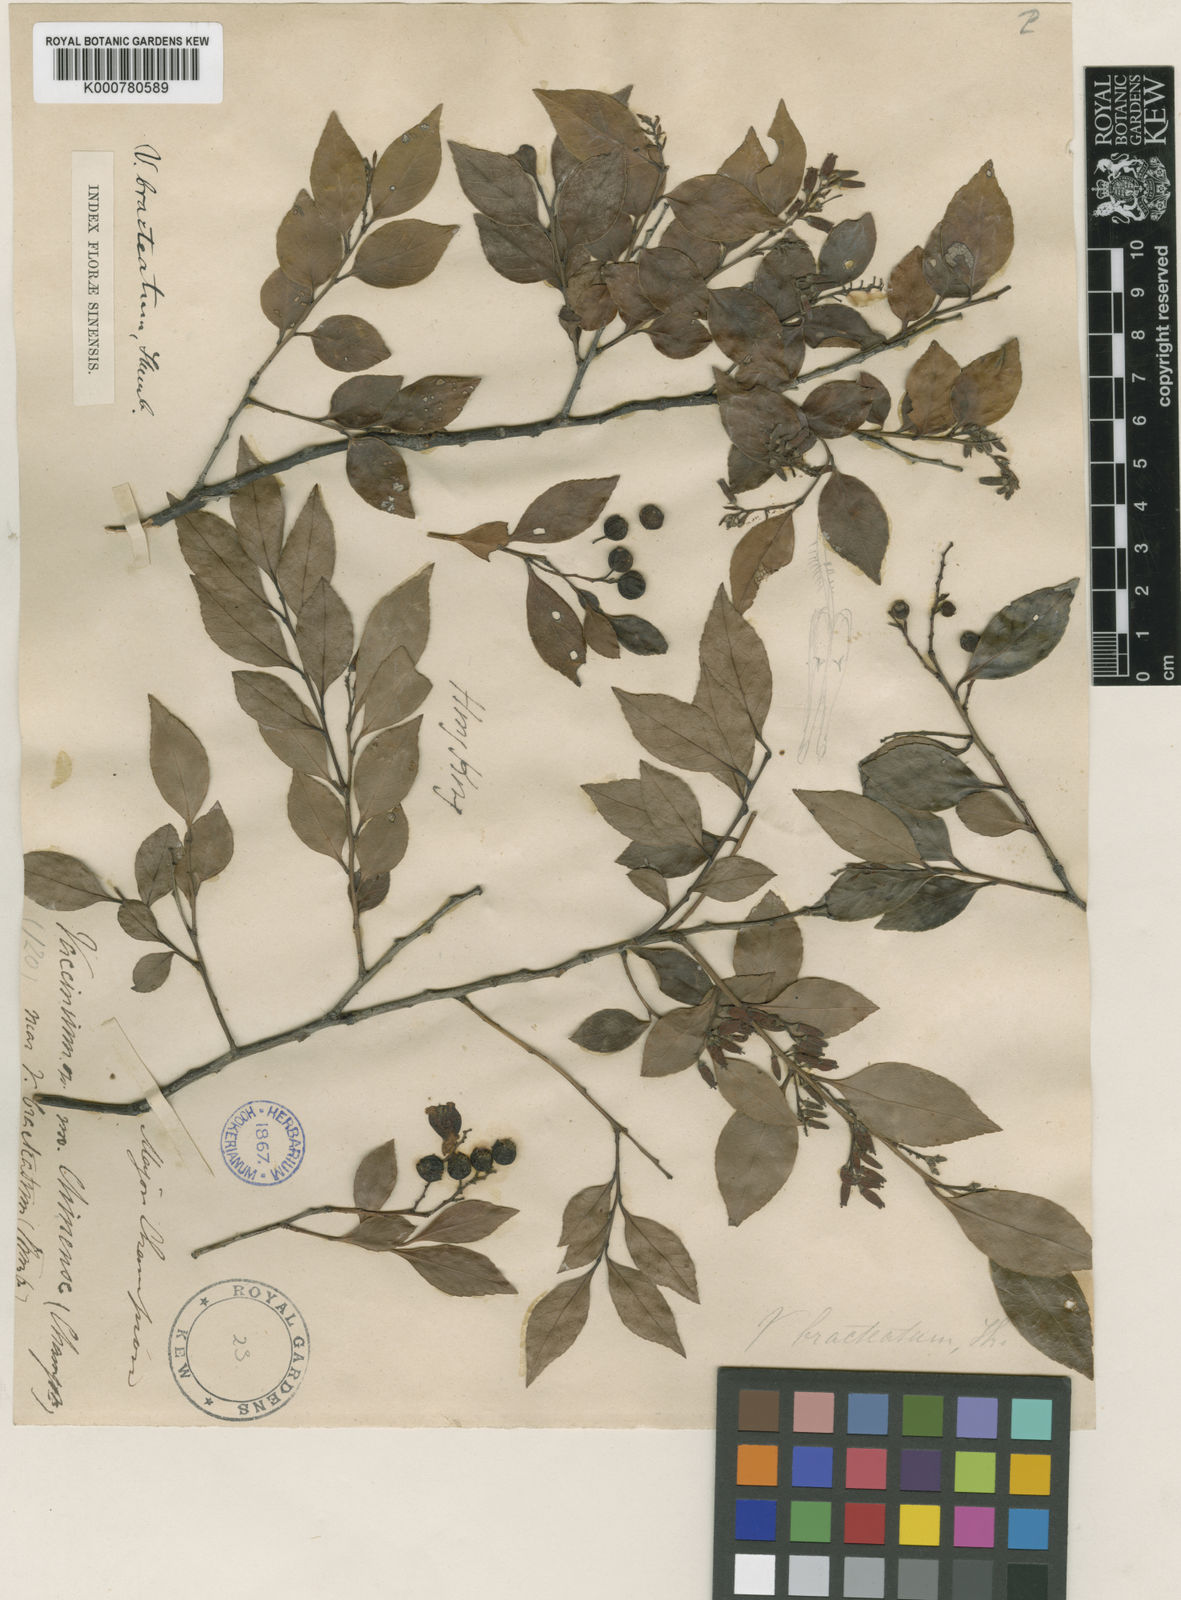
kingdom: Plantae
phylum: Tracheophyta
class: Magnoliopsida
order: Ericales
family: Ericaceae
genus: Vaccinium
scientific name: Vaccinium bracteatum
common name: Sea bilberry
